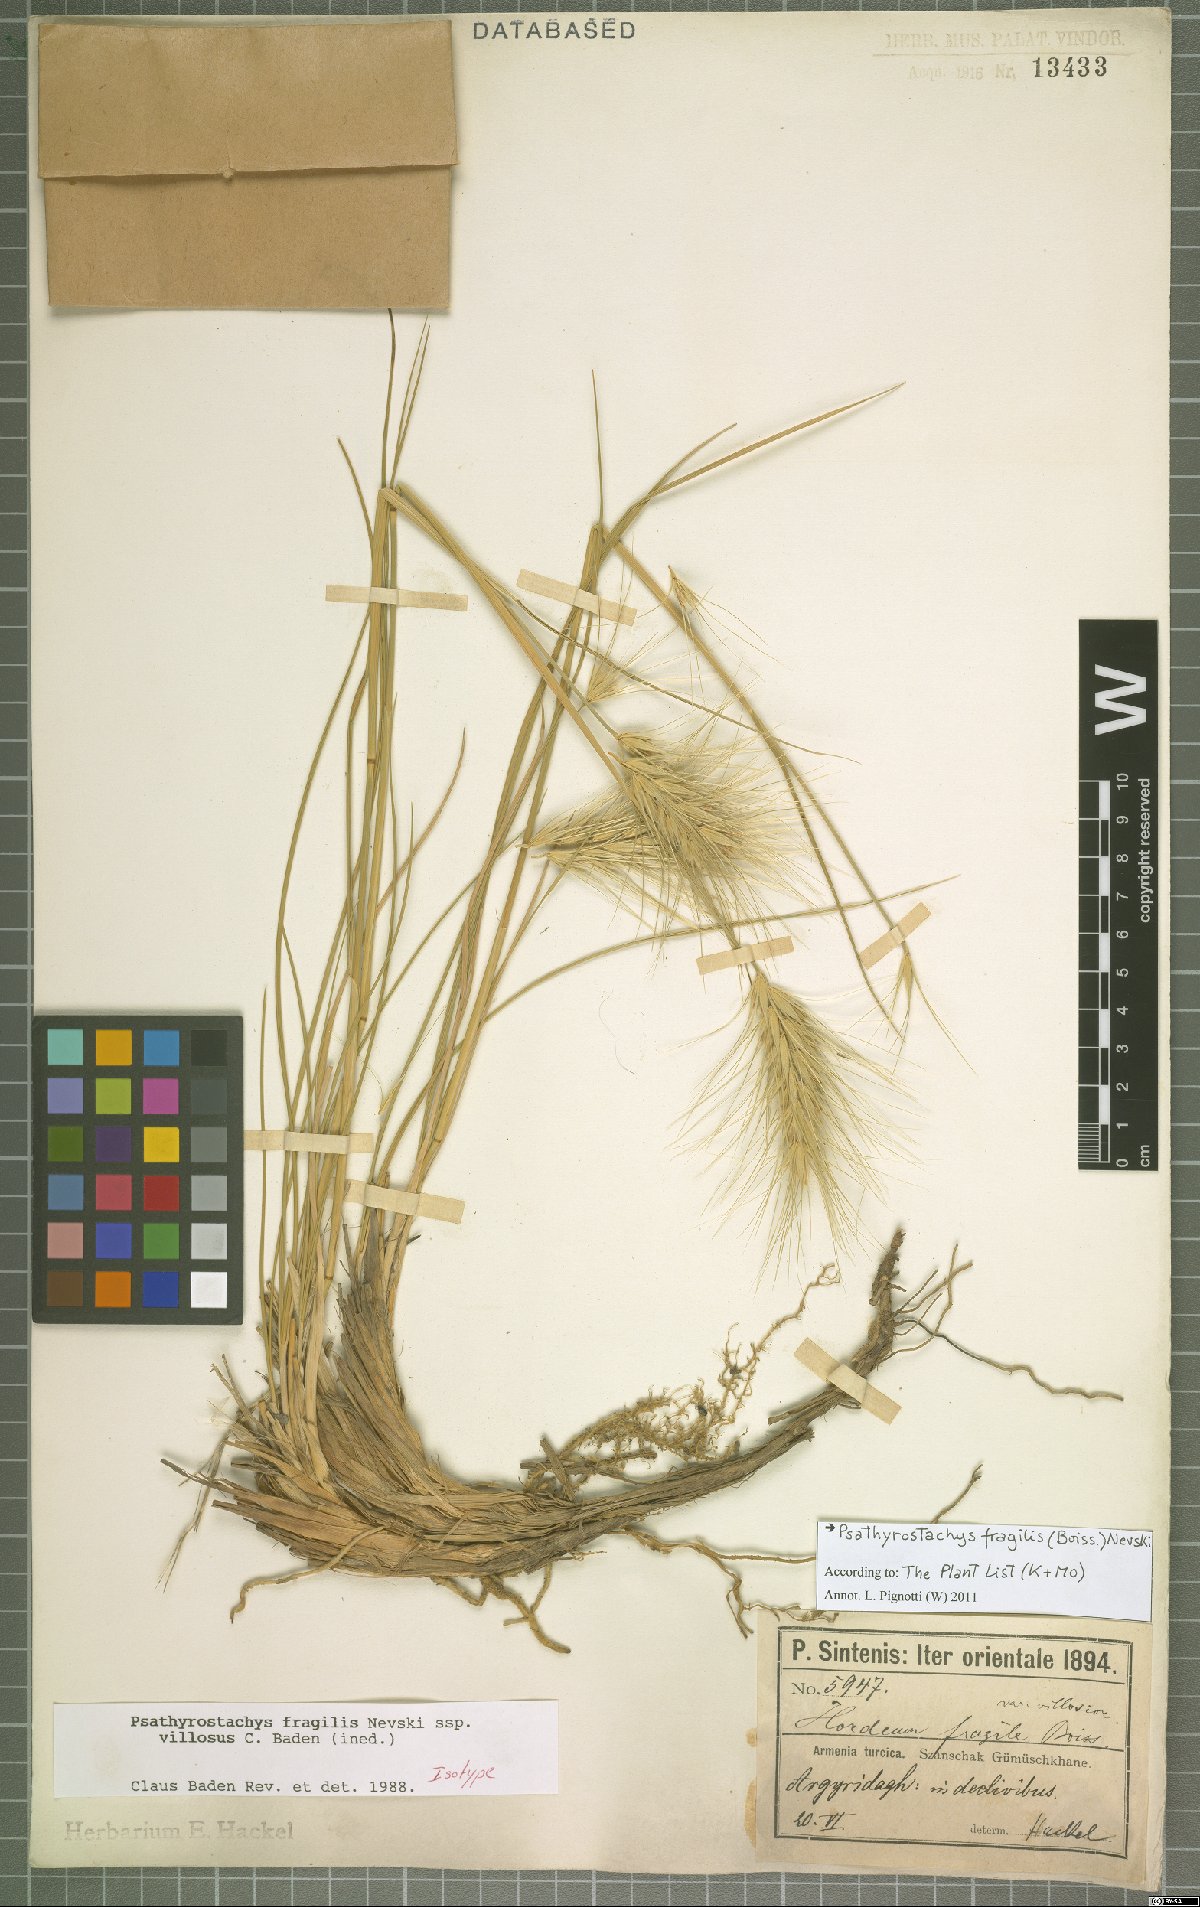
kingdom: Plantae
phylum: Tracheophyta
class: Liliopsida
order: Poales
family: Poaceae
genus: Psathyrostachys
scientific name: Psathyrostachys fragilis
